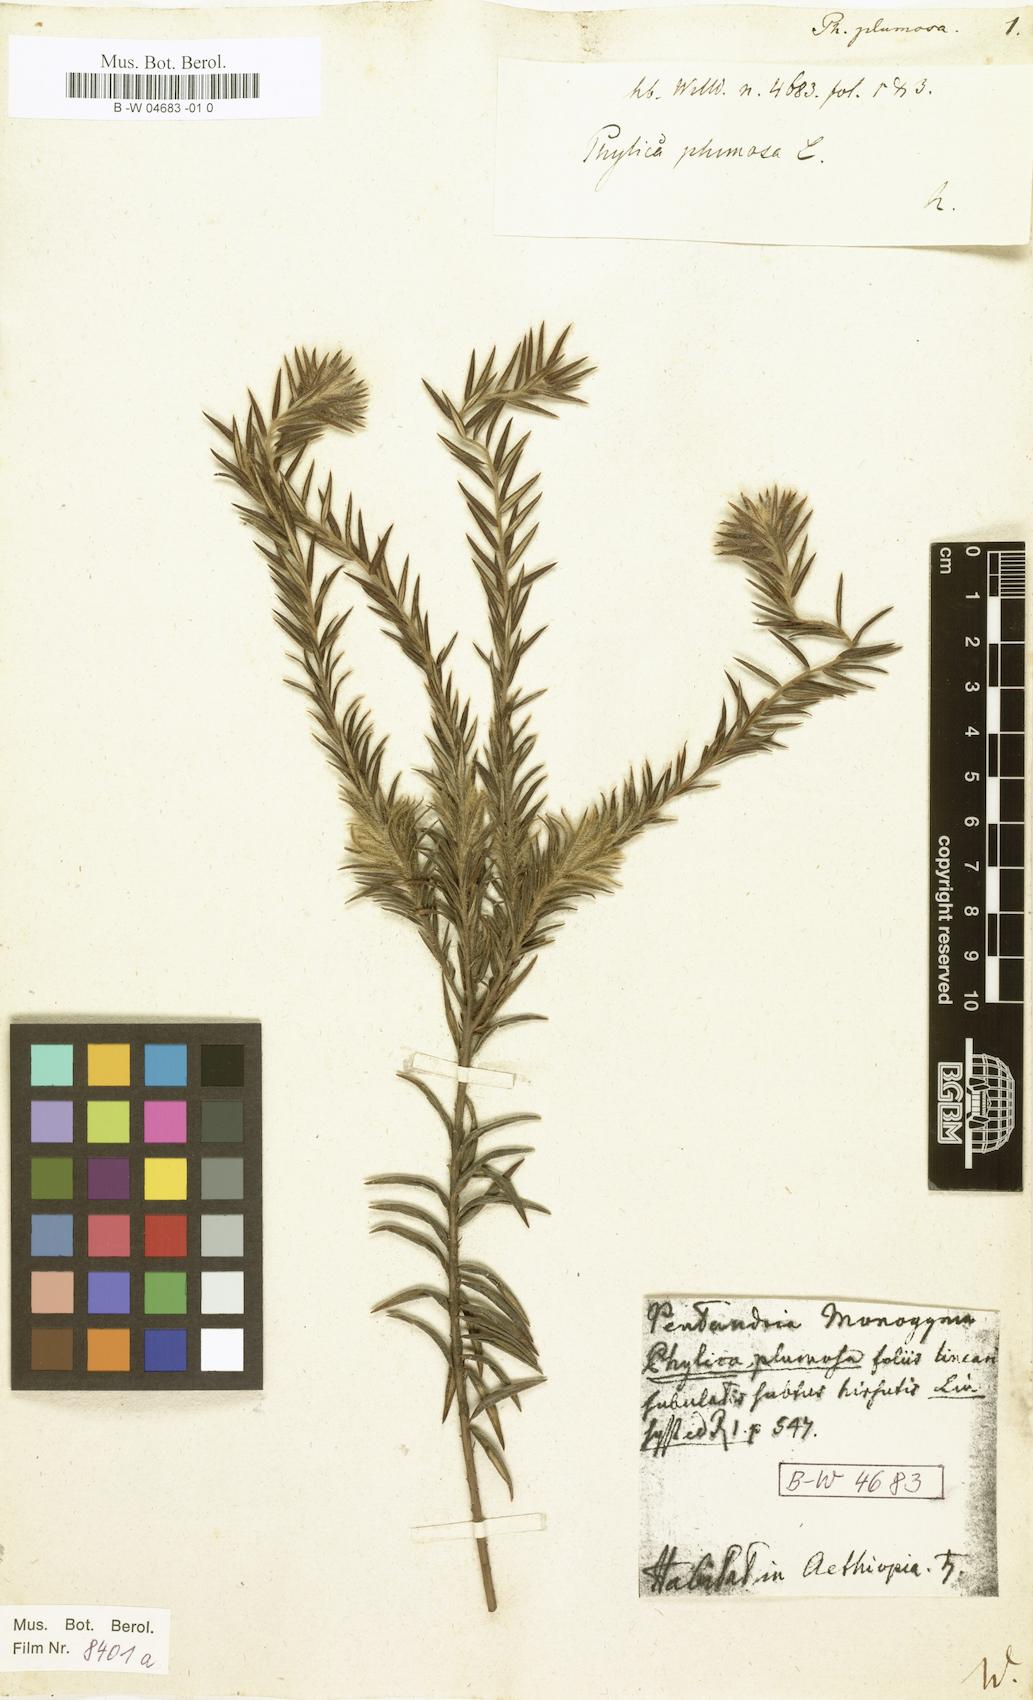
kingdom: Plantae
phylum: Tracheophyta
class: Magnoliopsida
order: Rosales
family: Rhamnaceae
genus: Phylica
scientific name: Phylica plumosa
